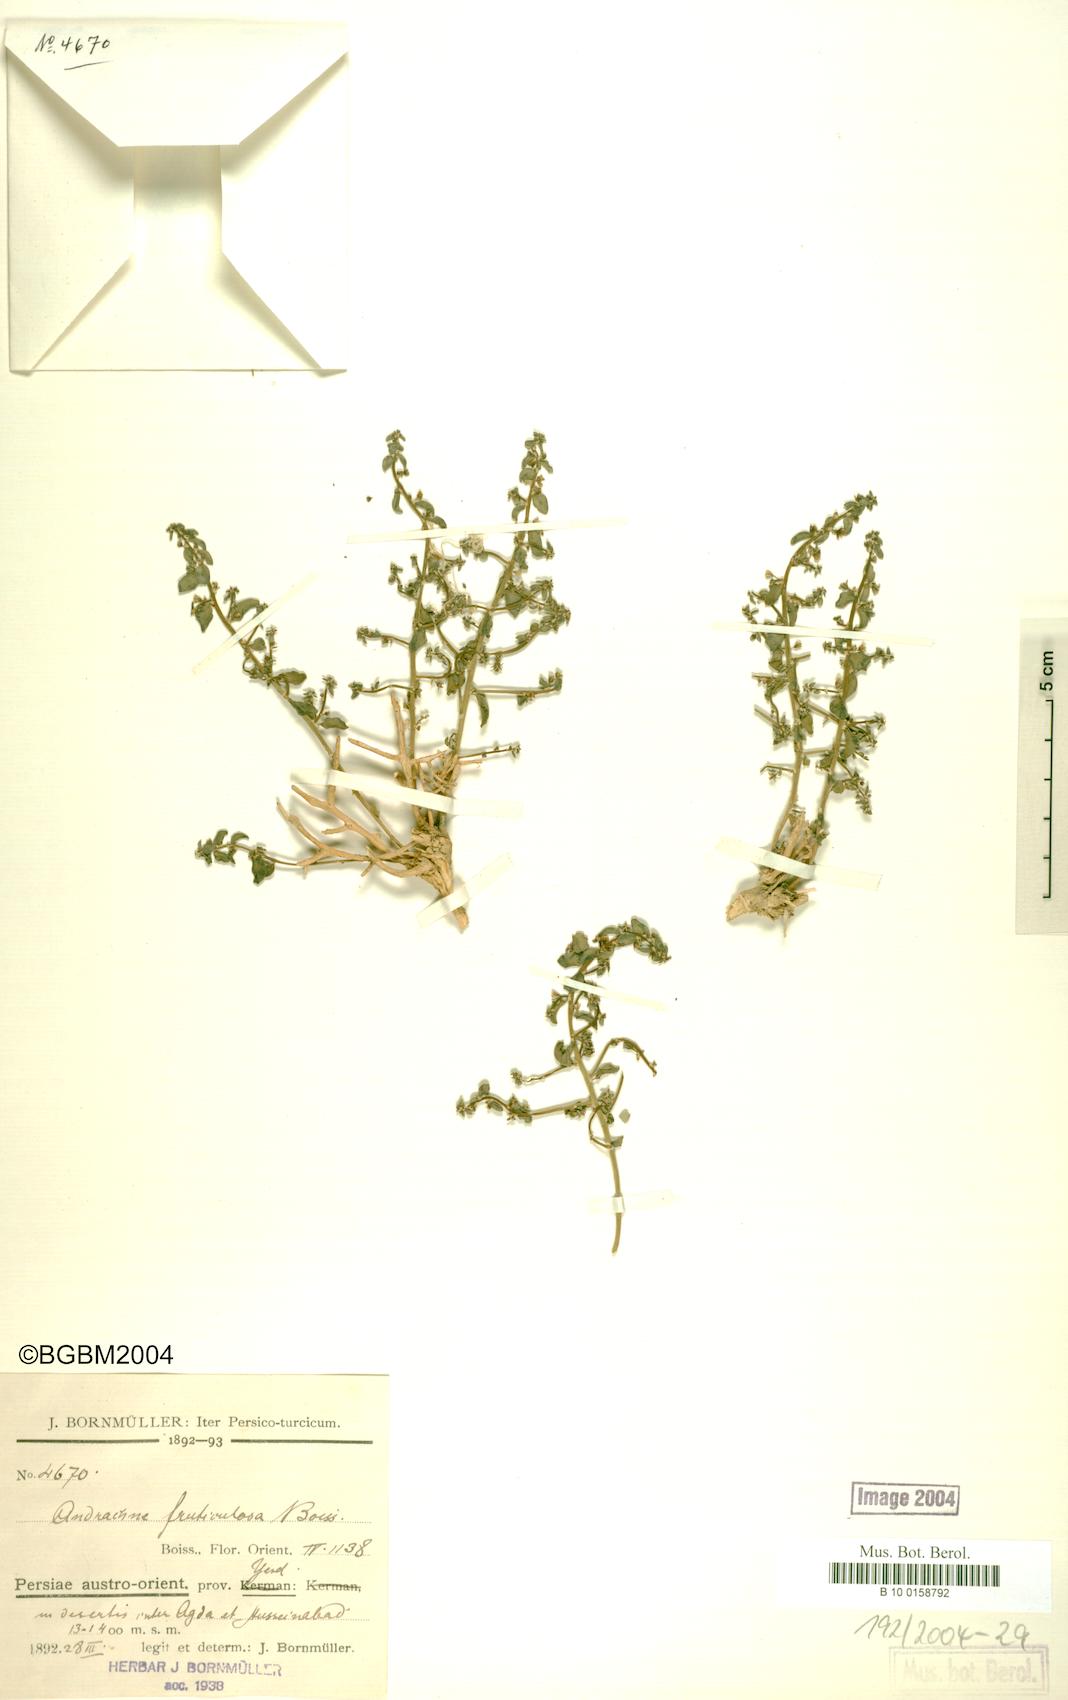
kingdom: Plantae
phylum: Tracheophyta
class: Magnoliopsida
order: Malpighiales
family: Phyllanthaceae
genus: Andrachne
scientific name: Andrachne fruticulosa
